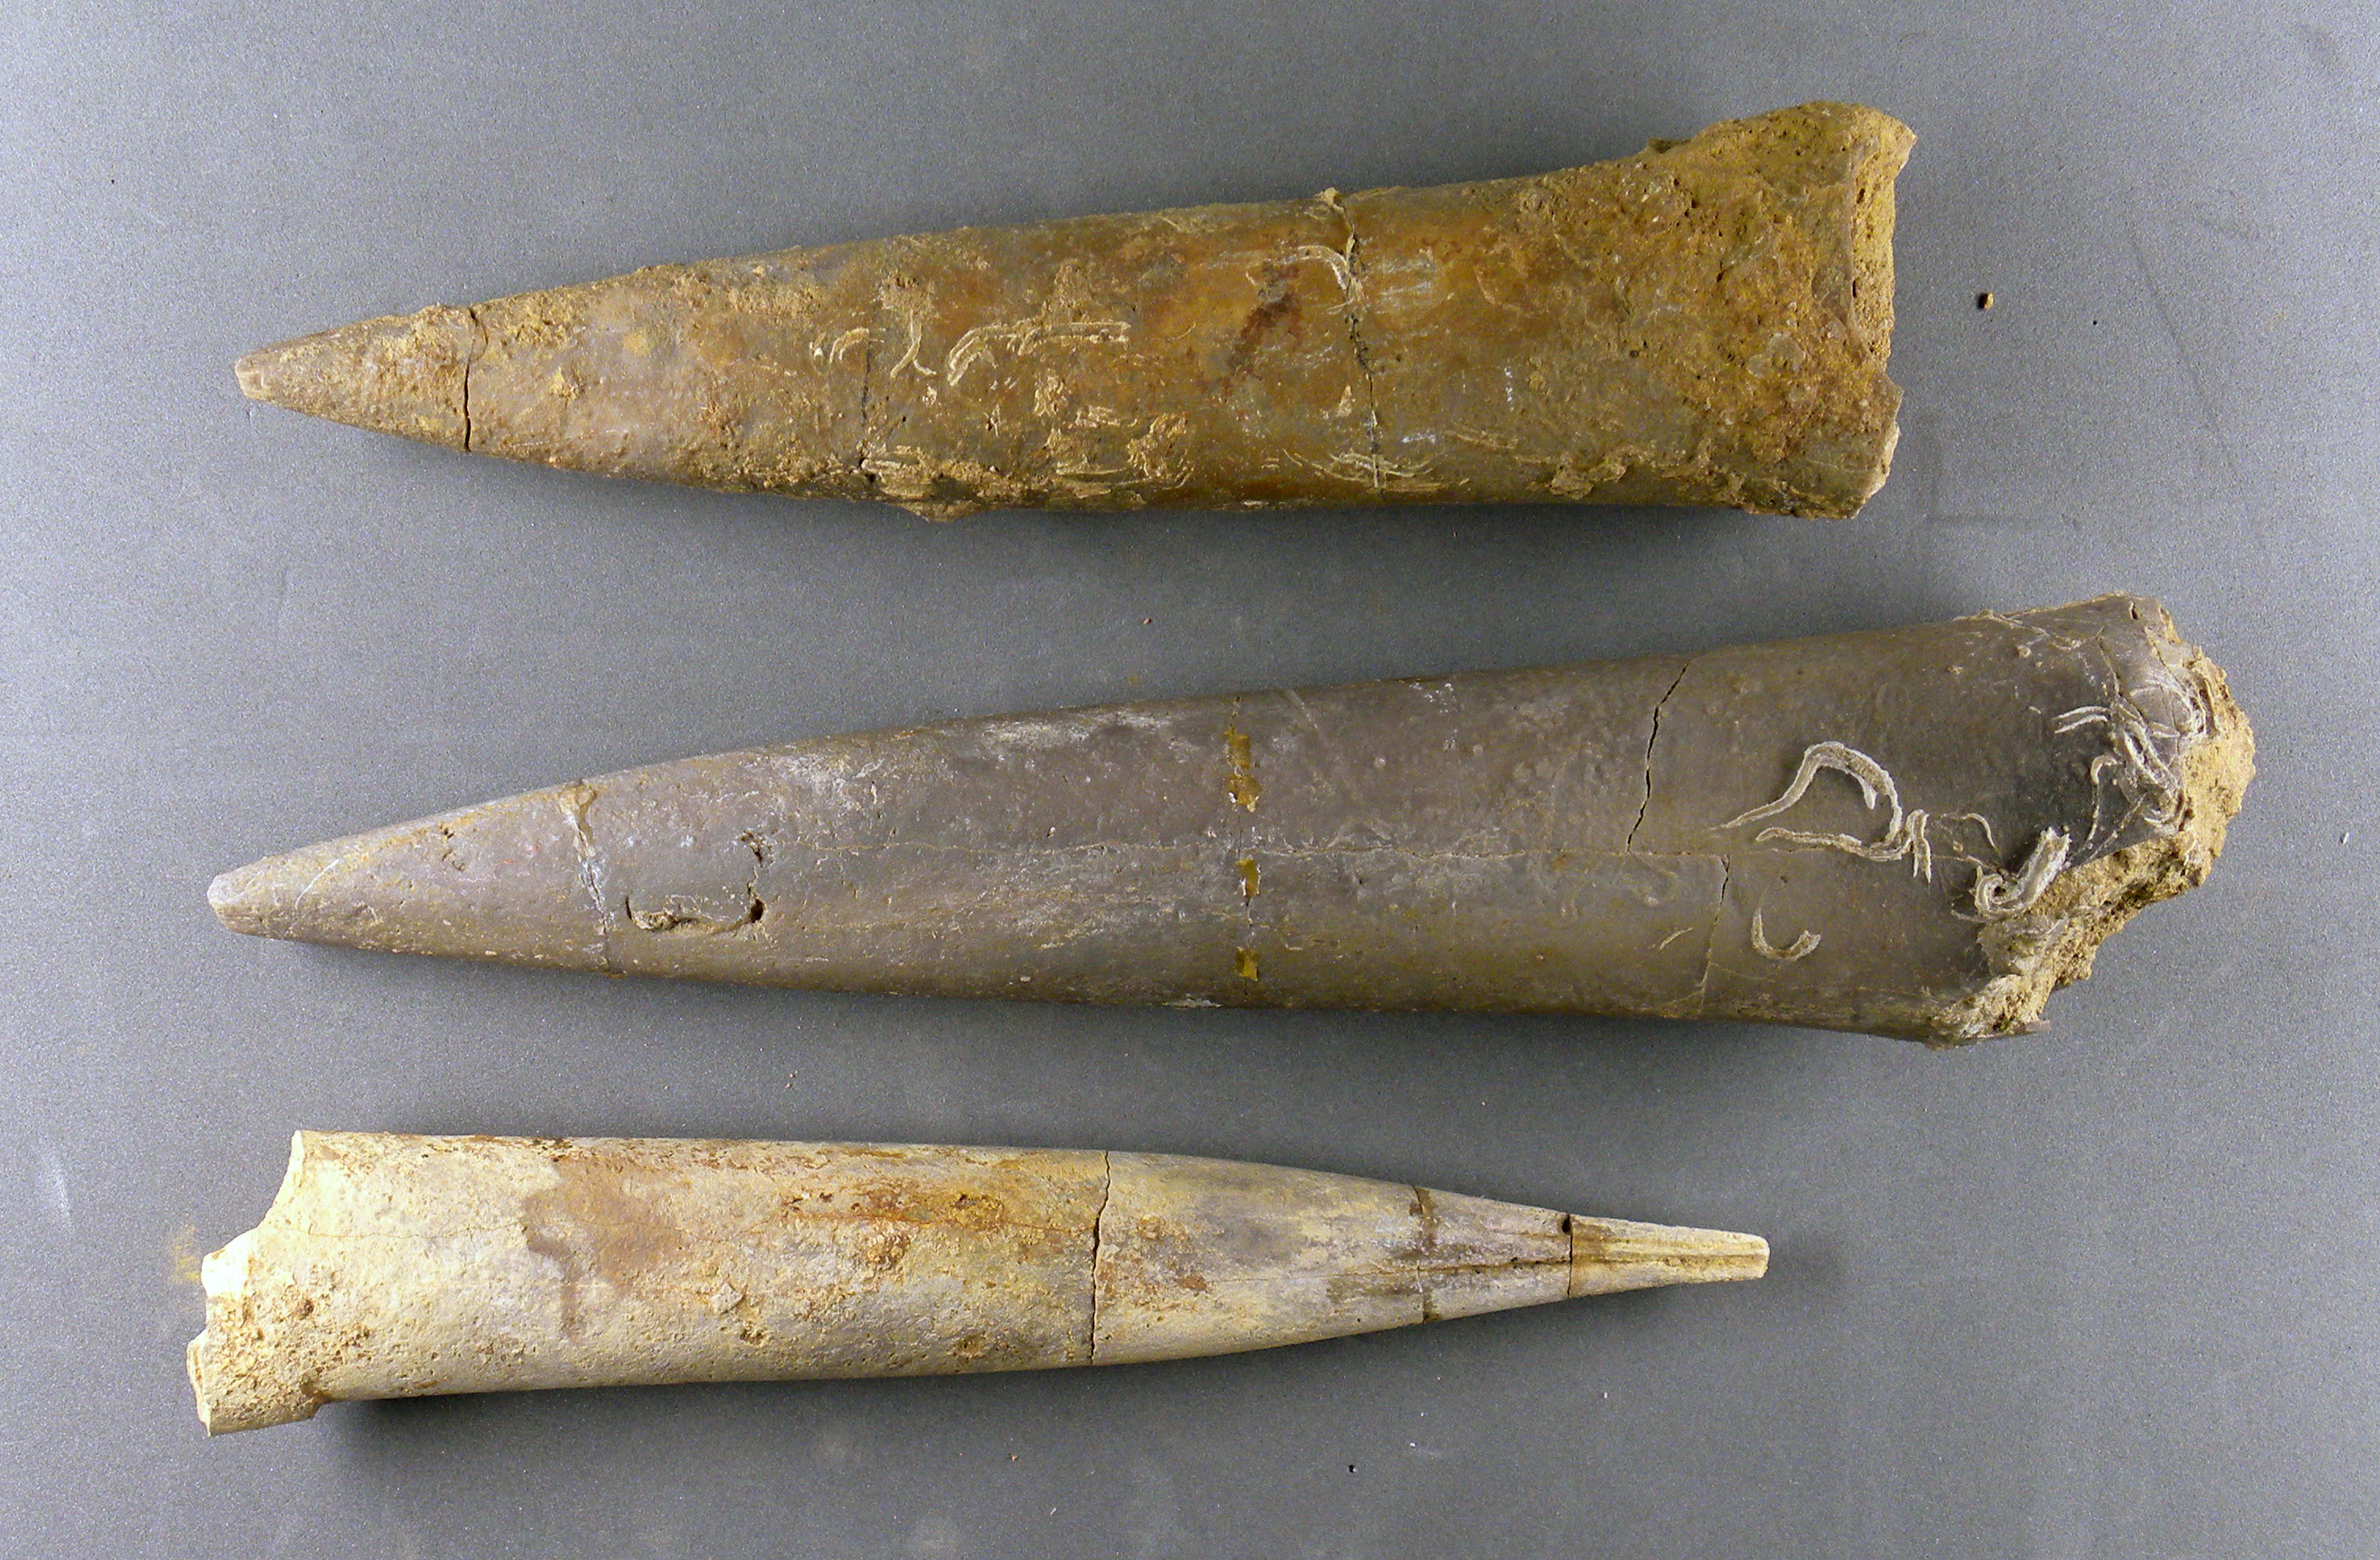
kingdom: Animalia
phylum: Mollusca
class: Cephalopoda
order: Belemnitida
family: Megateuthididae
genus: Megateuthis
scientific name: Megateuthis
